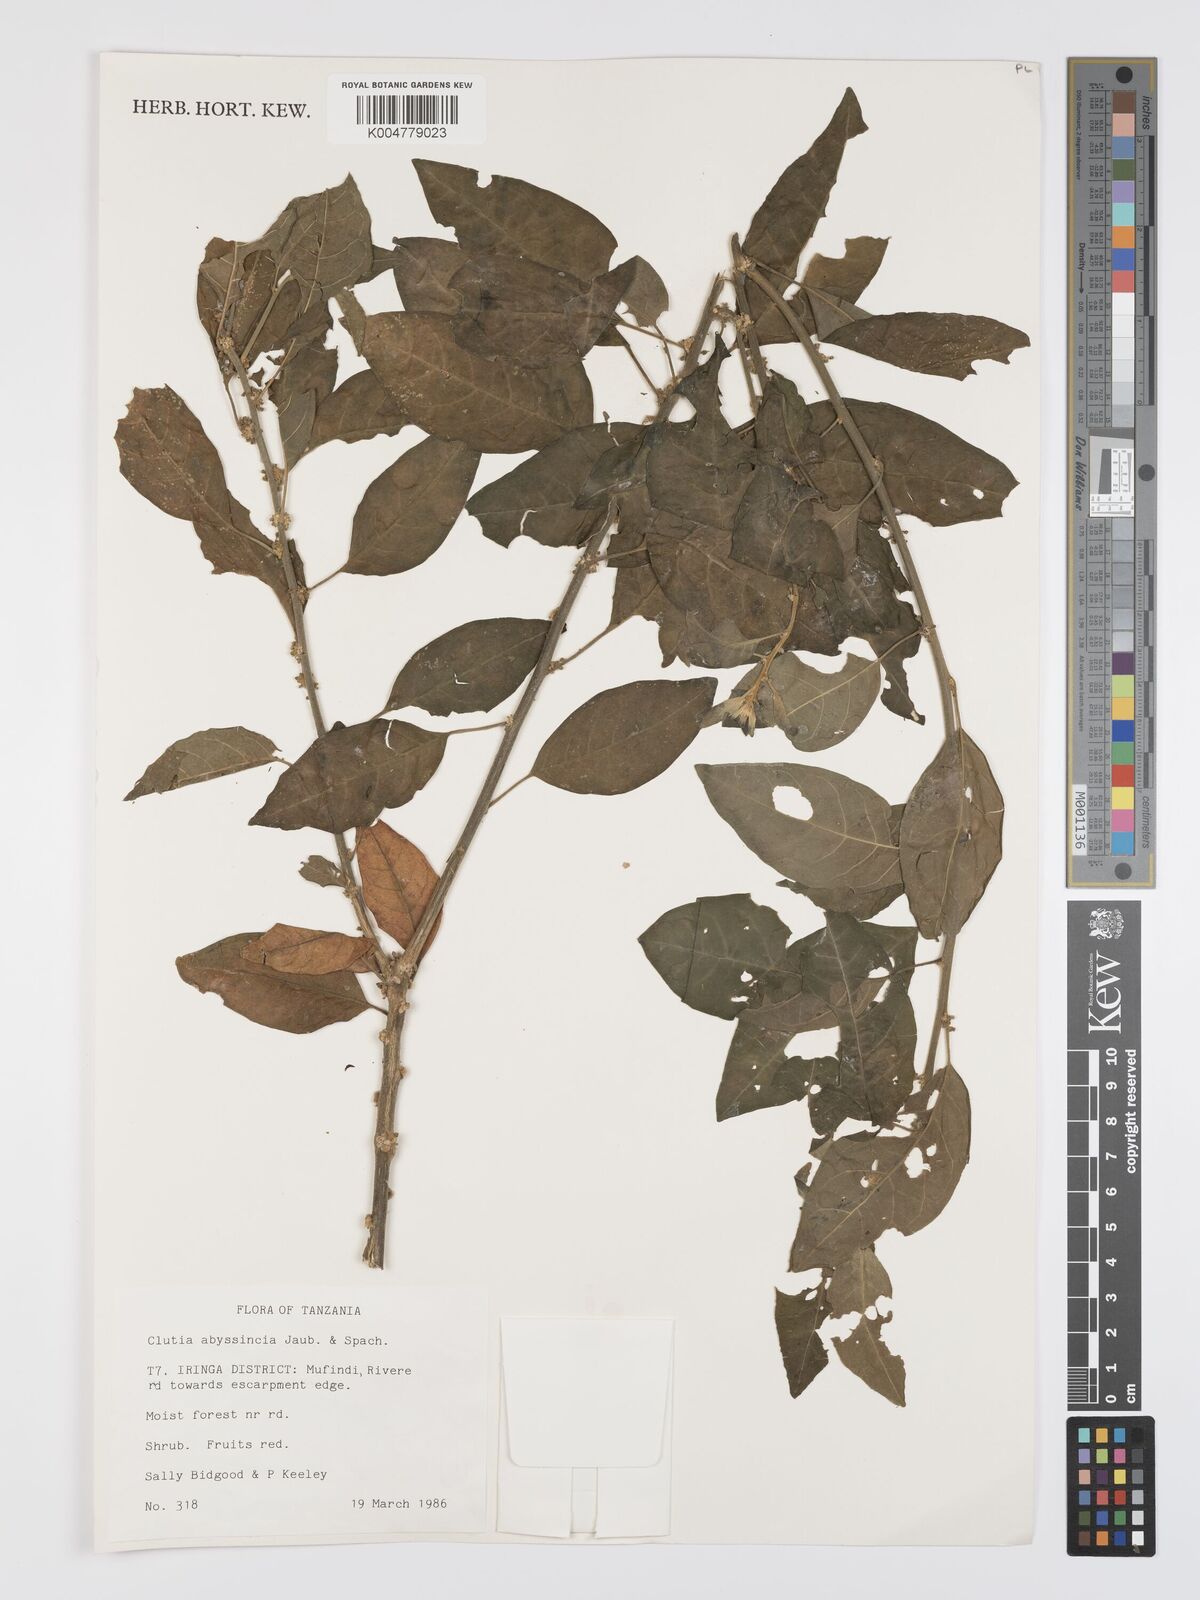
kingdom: Plantae
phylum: Tracheophyta
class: Magnoliopsida
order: Malpighiales
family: Peraceae
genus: Clutia
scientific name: Clutia abyssinica
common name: Large lightning bush
